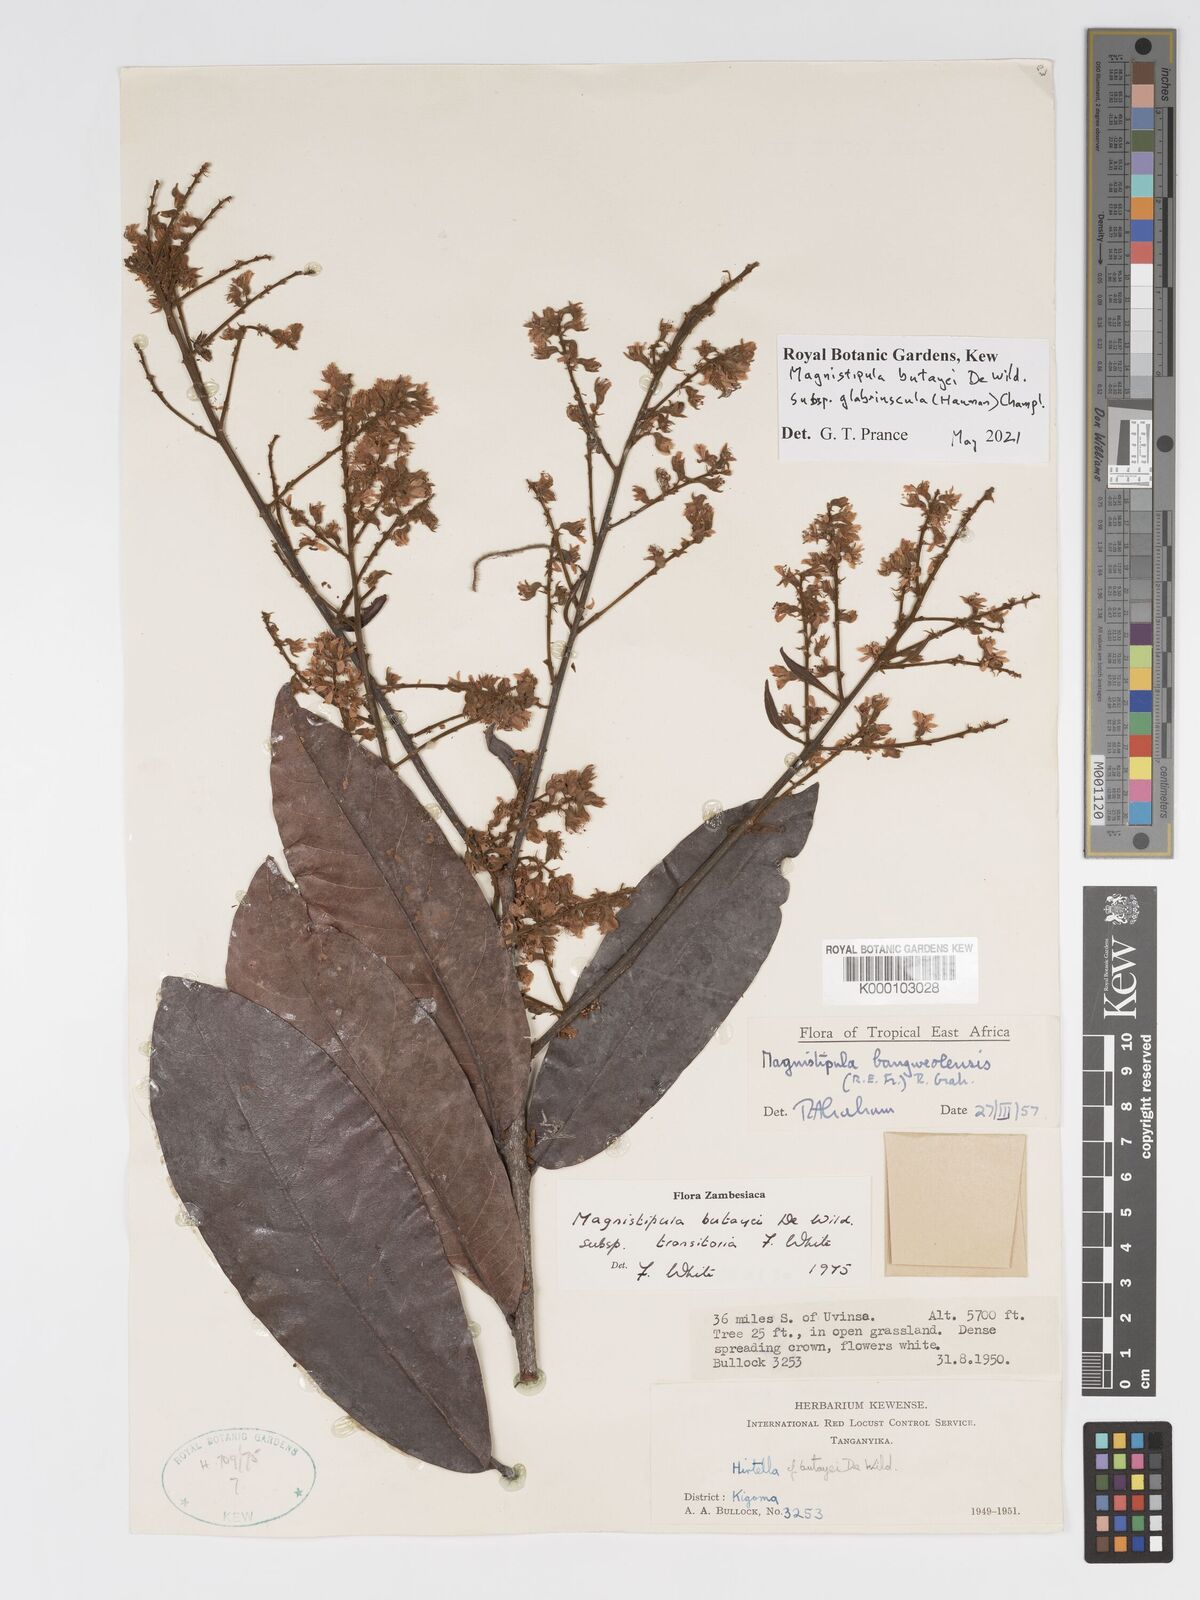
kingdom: Plantae
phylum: Tracheophyta
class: Magnoliopsida
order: Malpighiales
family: Chrysobalanaceae
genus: Magnistipula
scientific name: Magnistipula butayei
